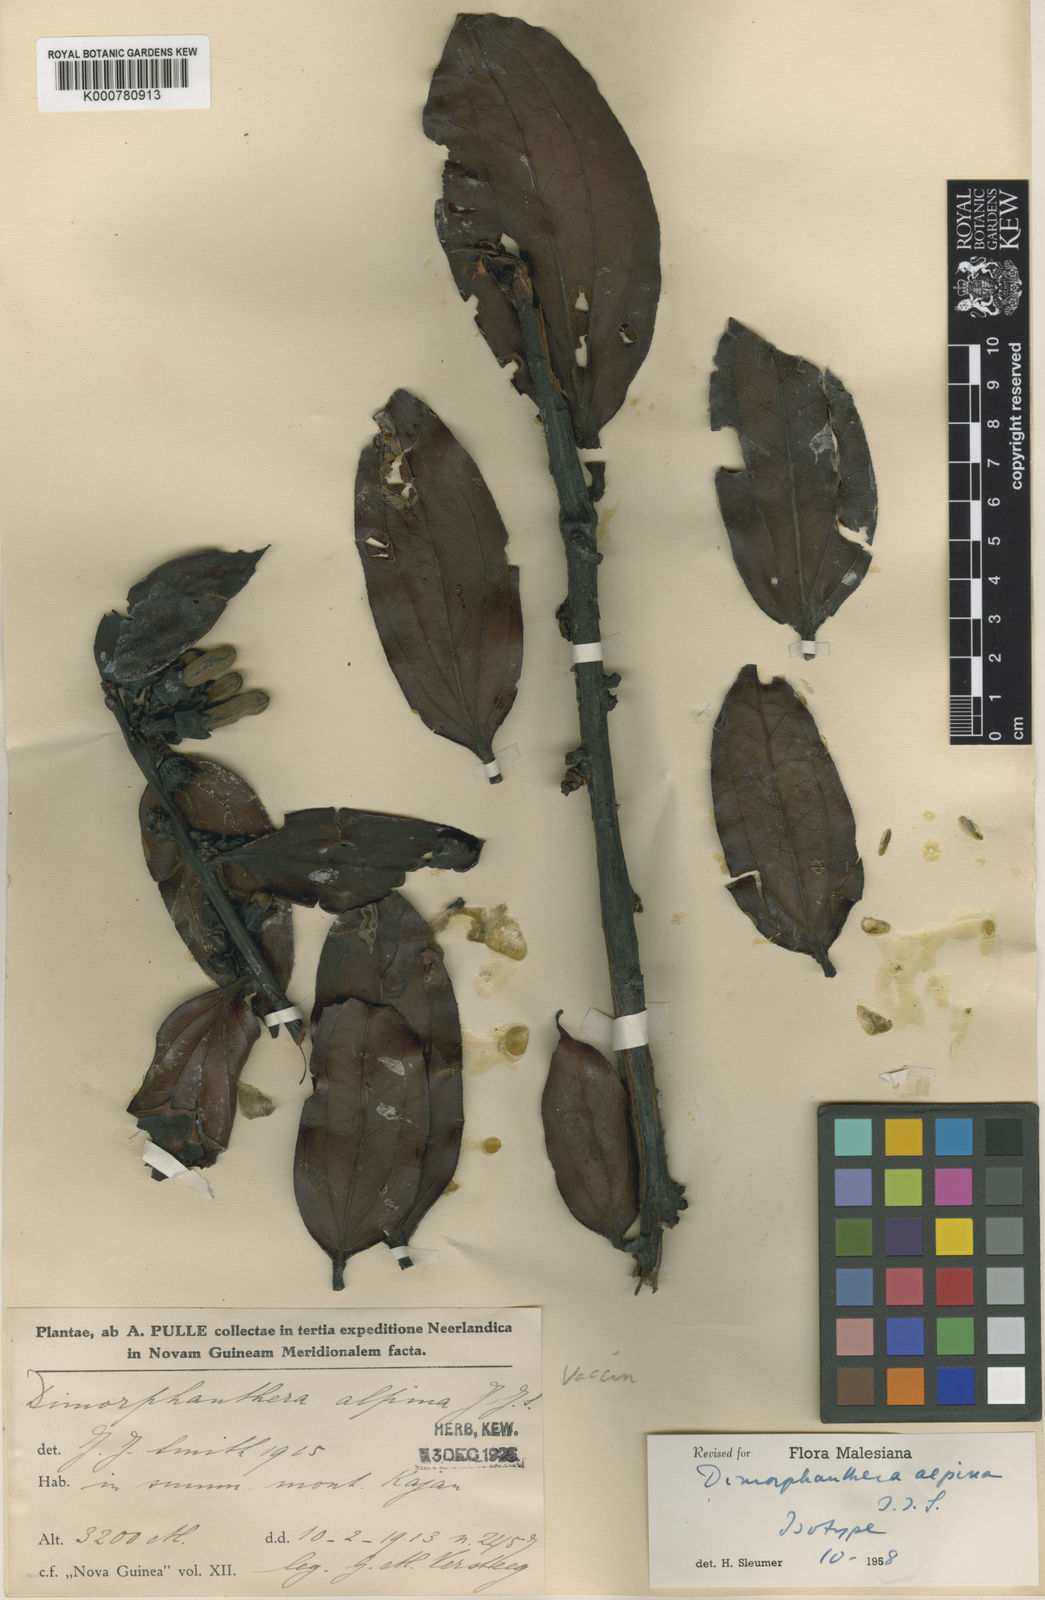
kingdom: Plantae
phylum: Tracheophyta
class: Magnoliopsida
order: Ericales
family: Ericaceae
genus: Dimorphanthera
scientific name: Dimorphanthera alpina
